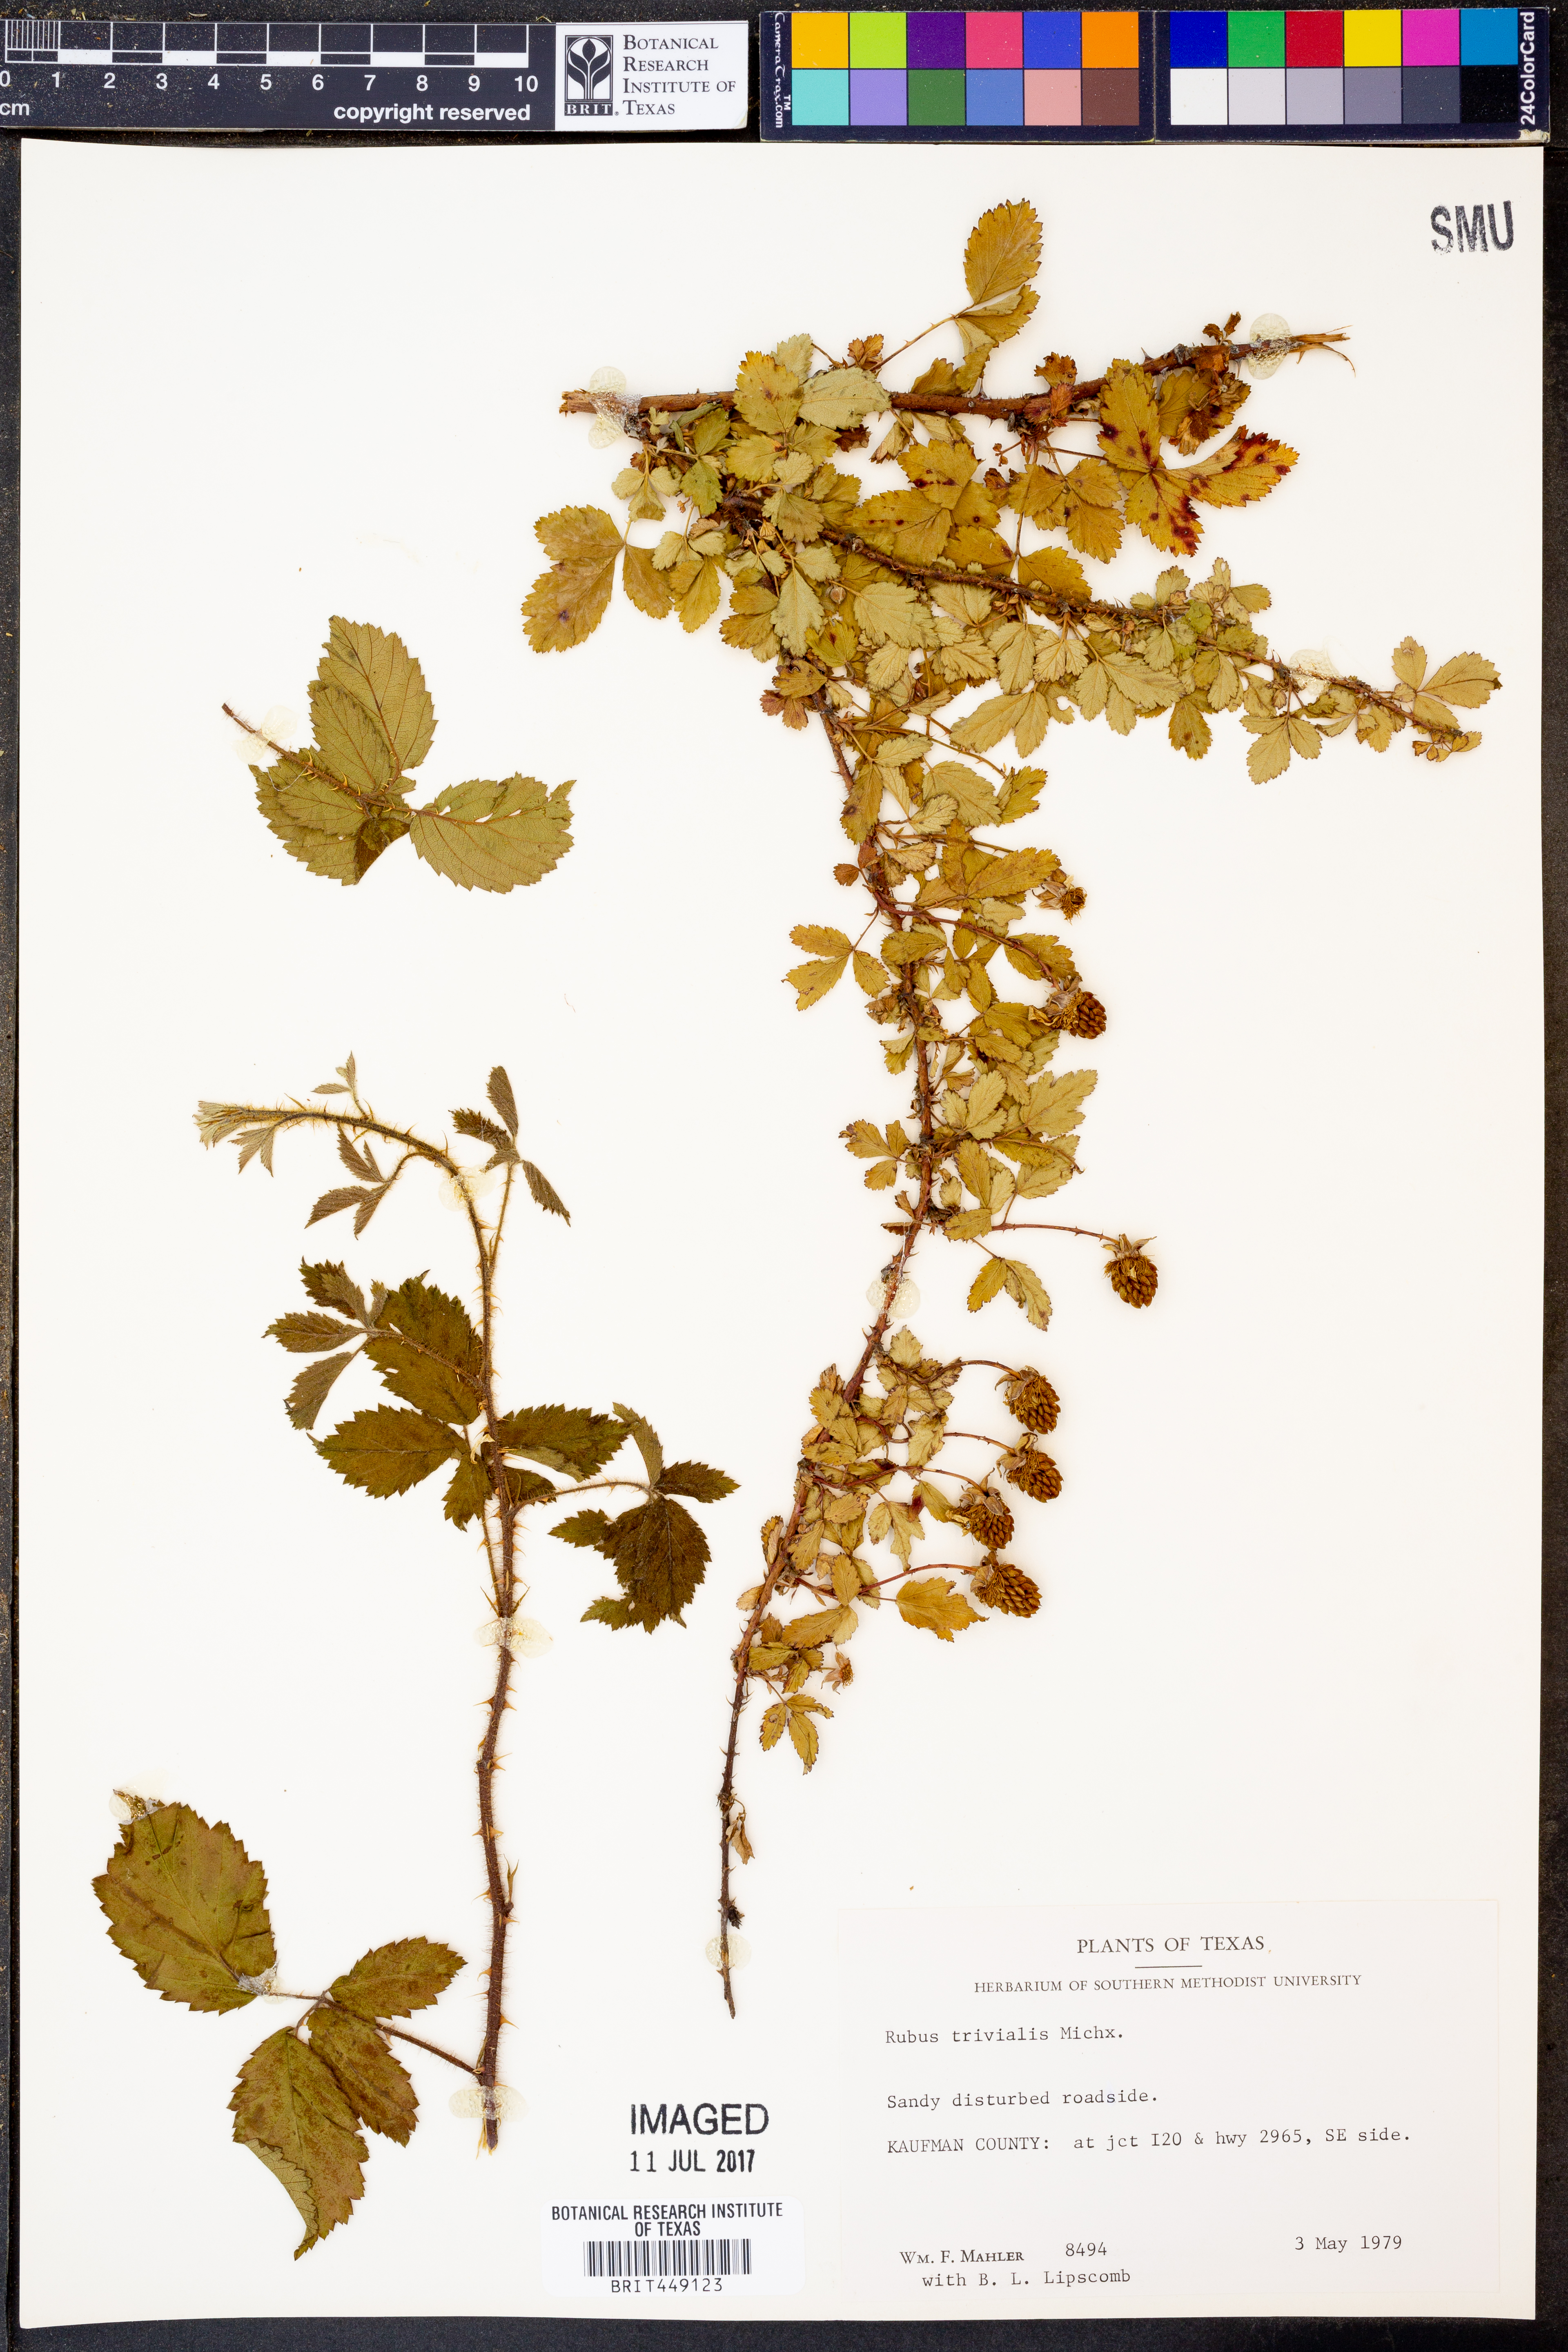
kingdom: Plantae
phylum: Tracheophyta
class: Magnoliopsida
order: Rosales
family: Rosaceae
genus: Rubus
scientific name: Rubus trivialis
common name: Southern dewberry
